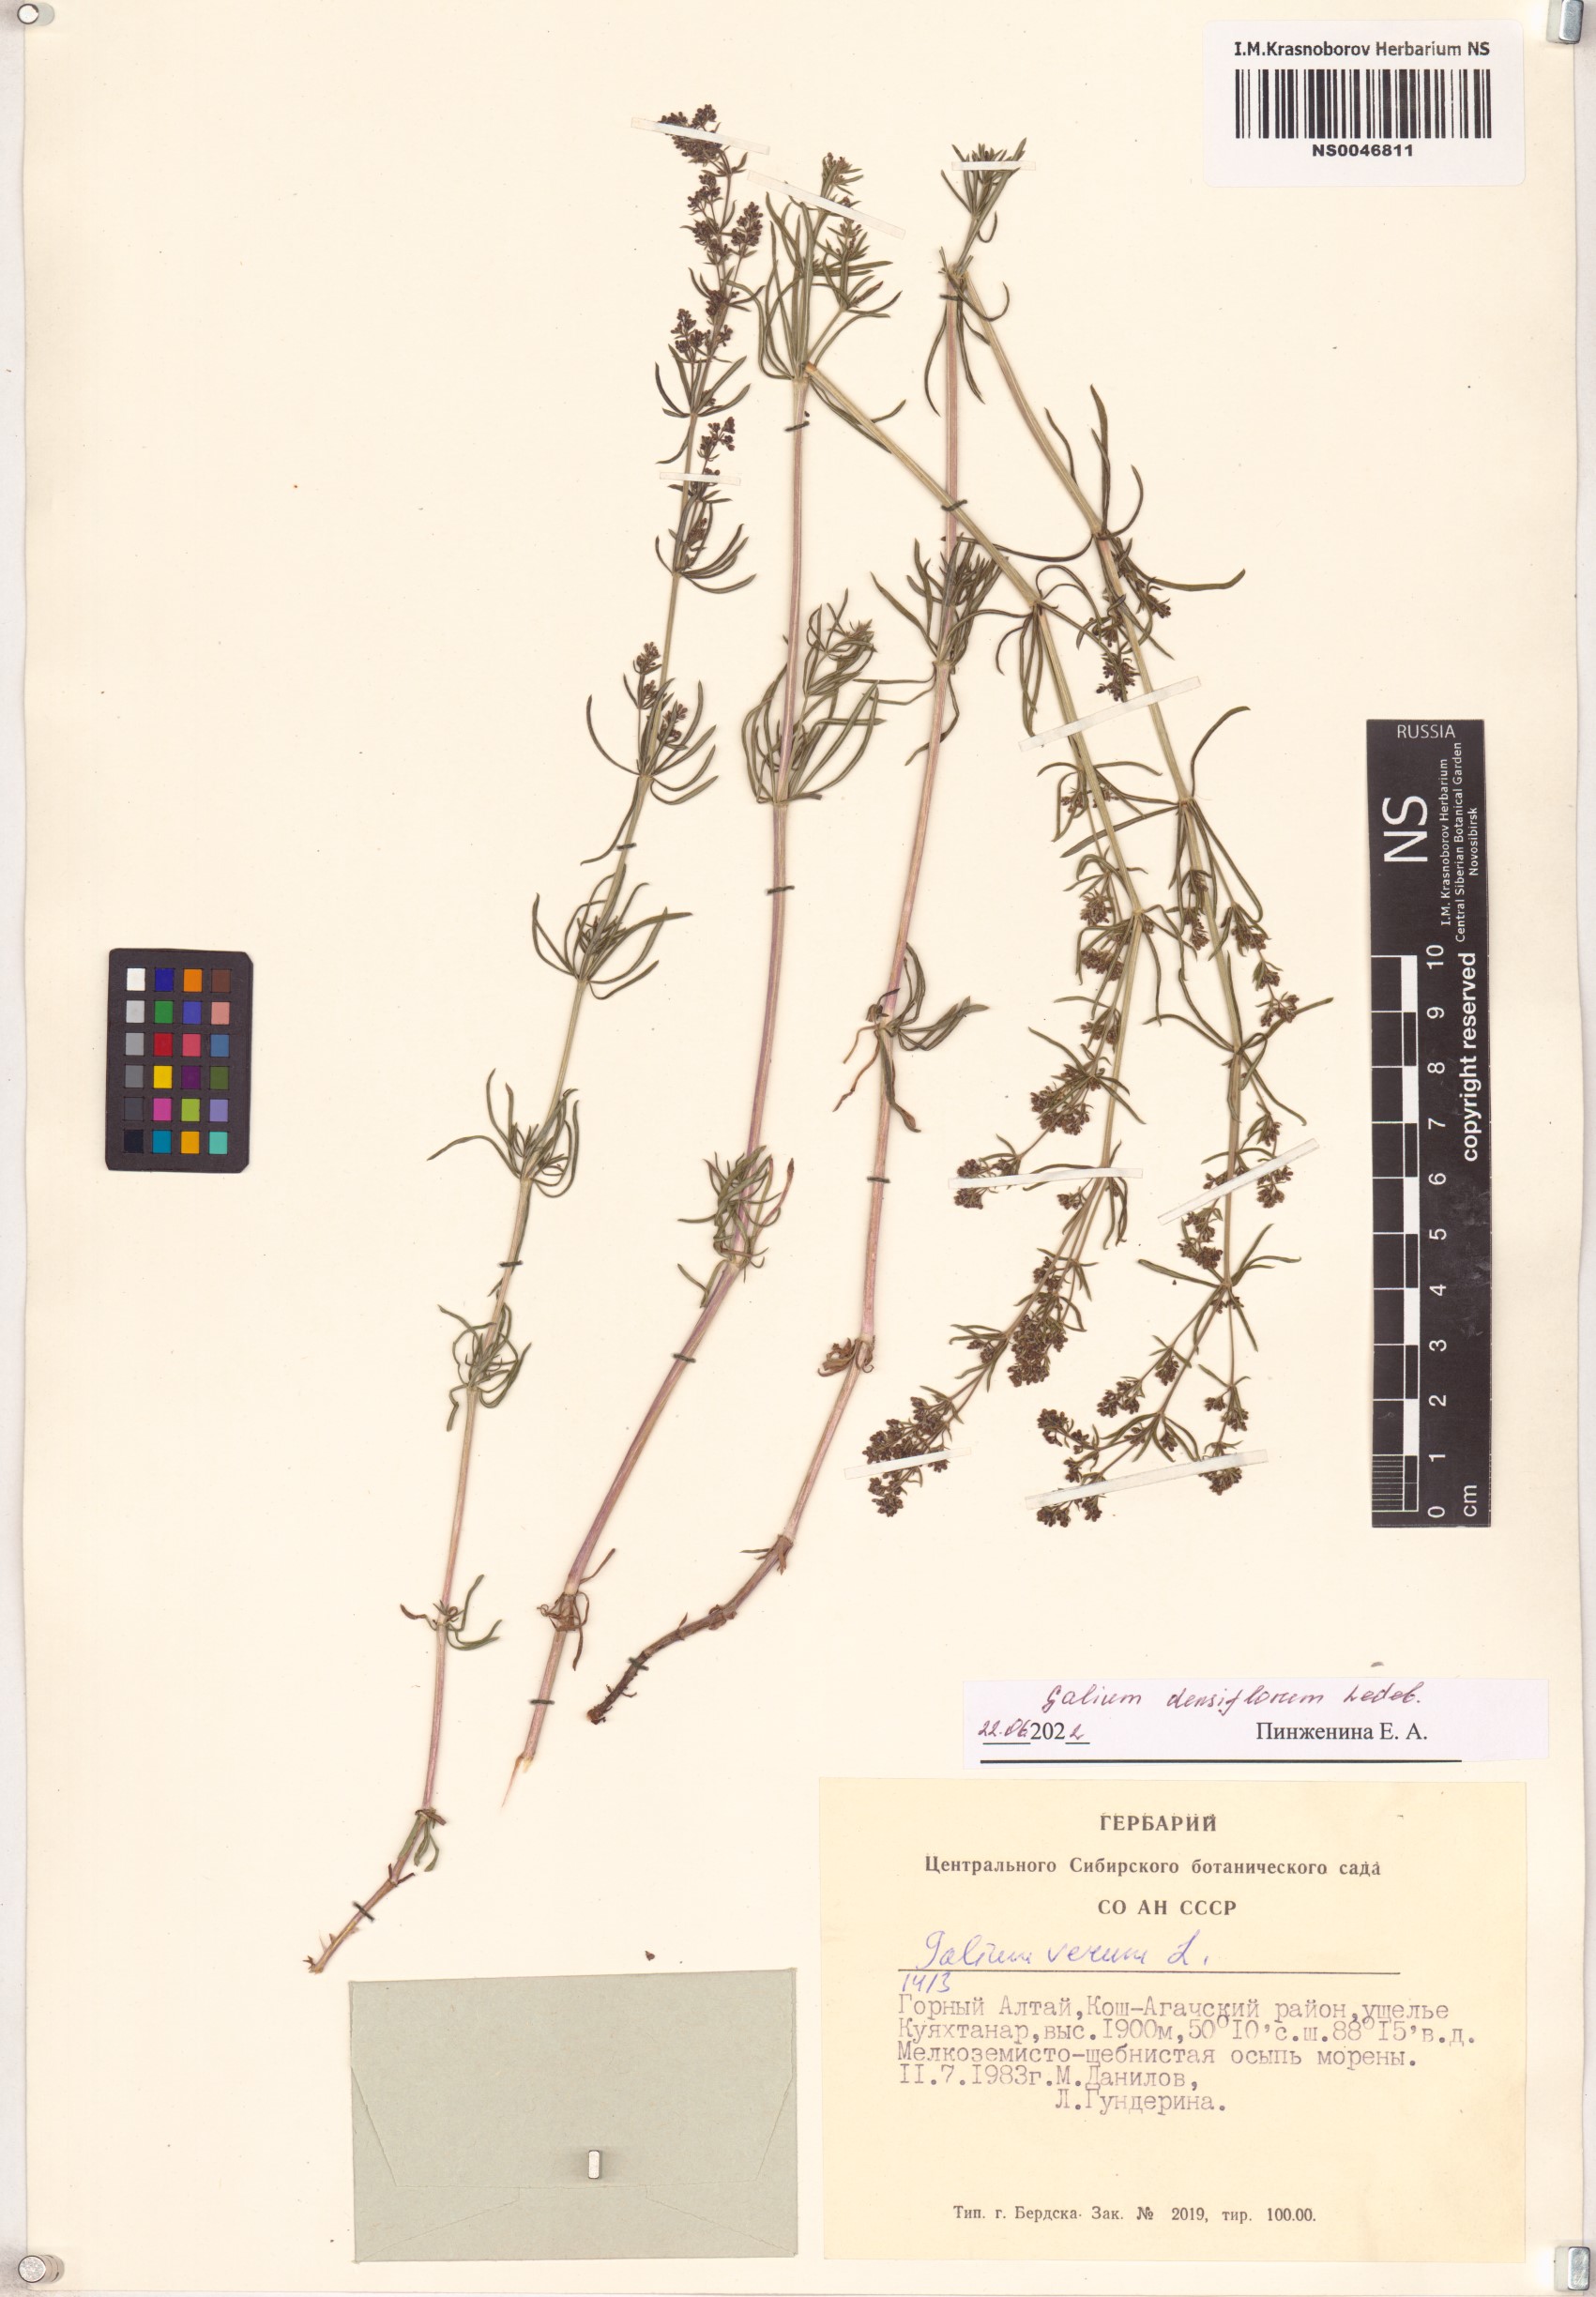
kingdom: Plantae
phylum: Tracheophyta
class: Magnoliopsida
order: Gentianales
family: Rubiaceae
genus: Galium
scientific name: Galium densiflorum
